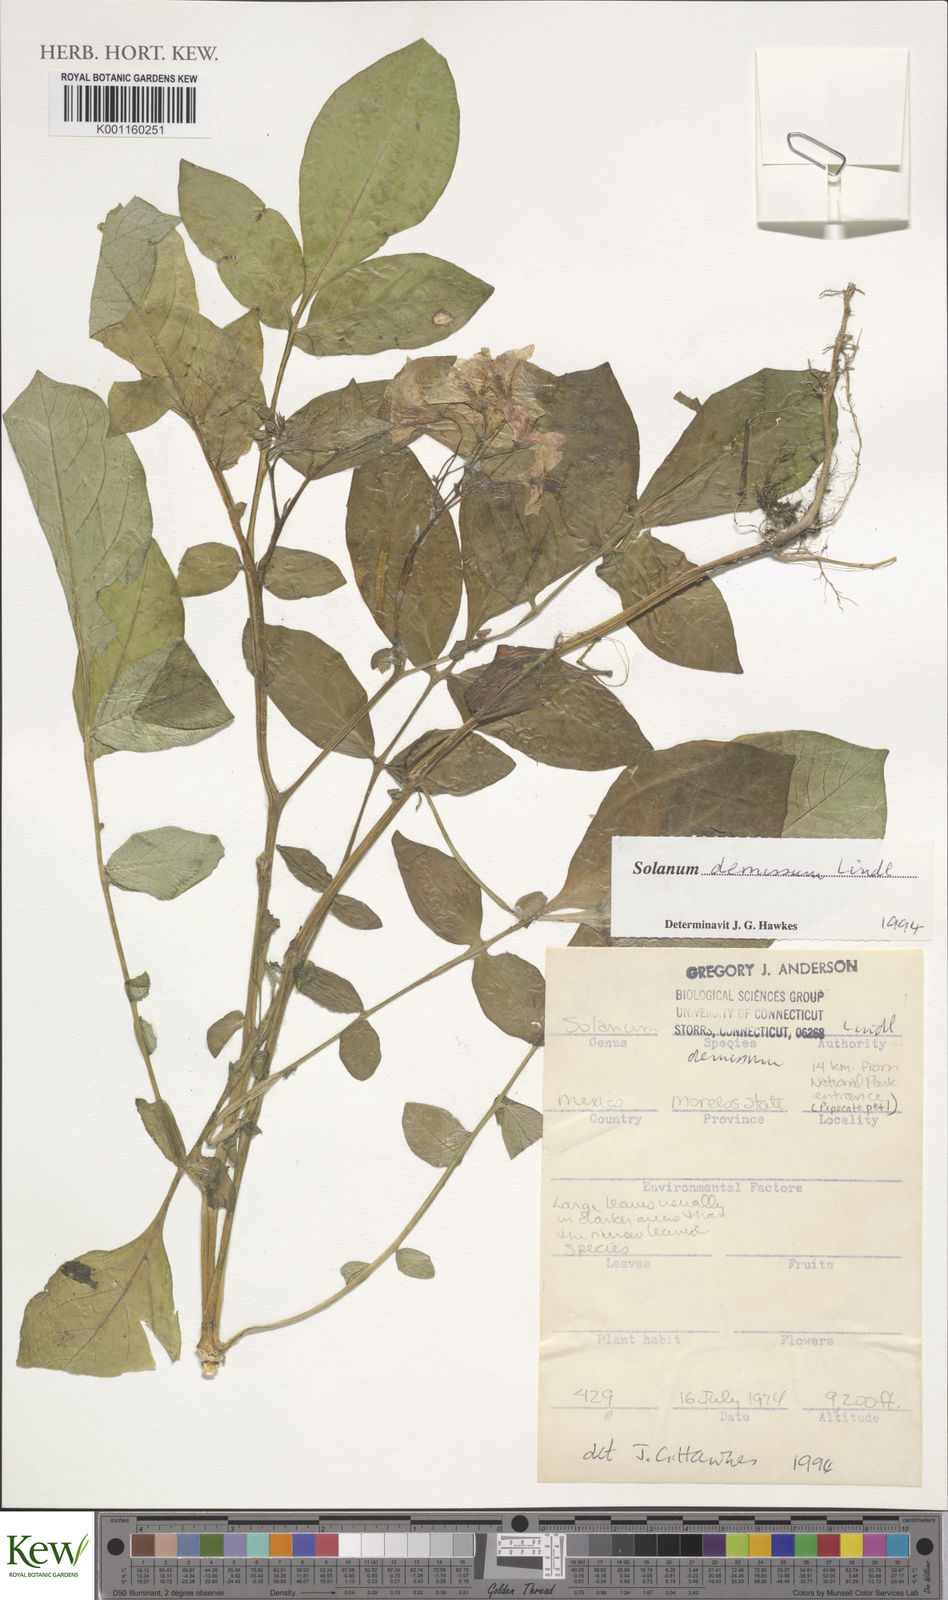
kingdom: Plantae
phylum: Tracheophyta
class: Magnoliopsida
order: Solanales
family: Solanaceae
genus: Solanum
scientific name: Solanum demissum
